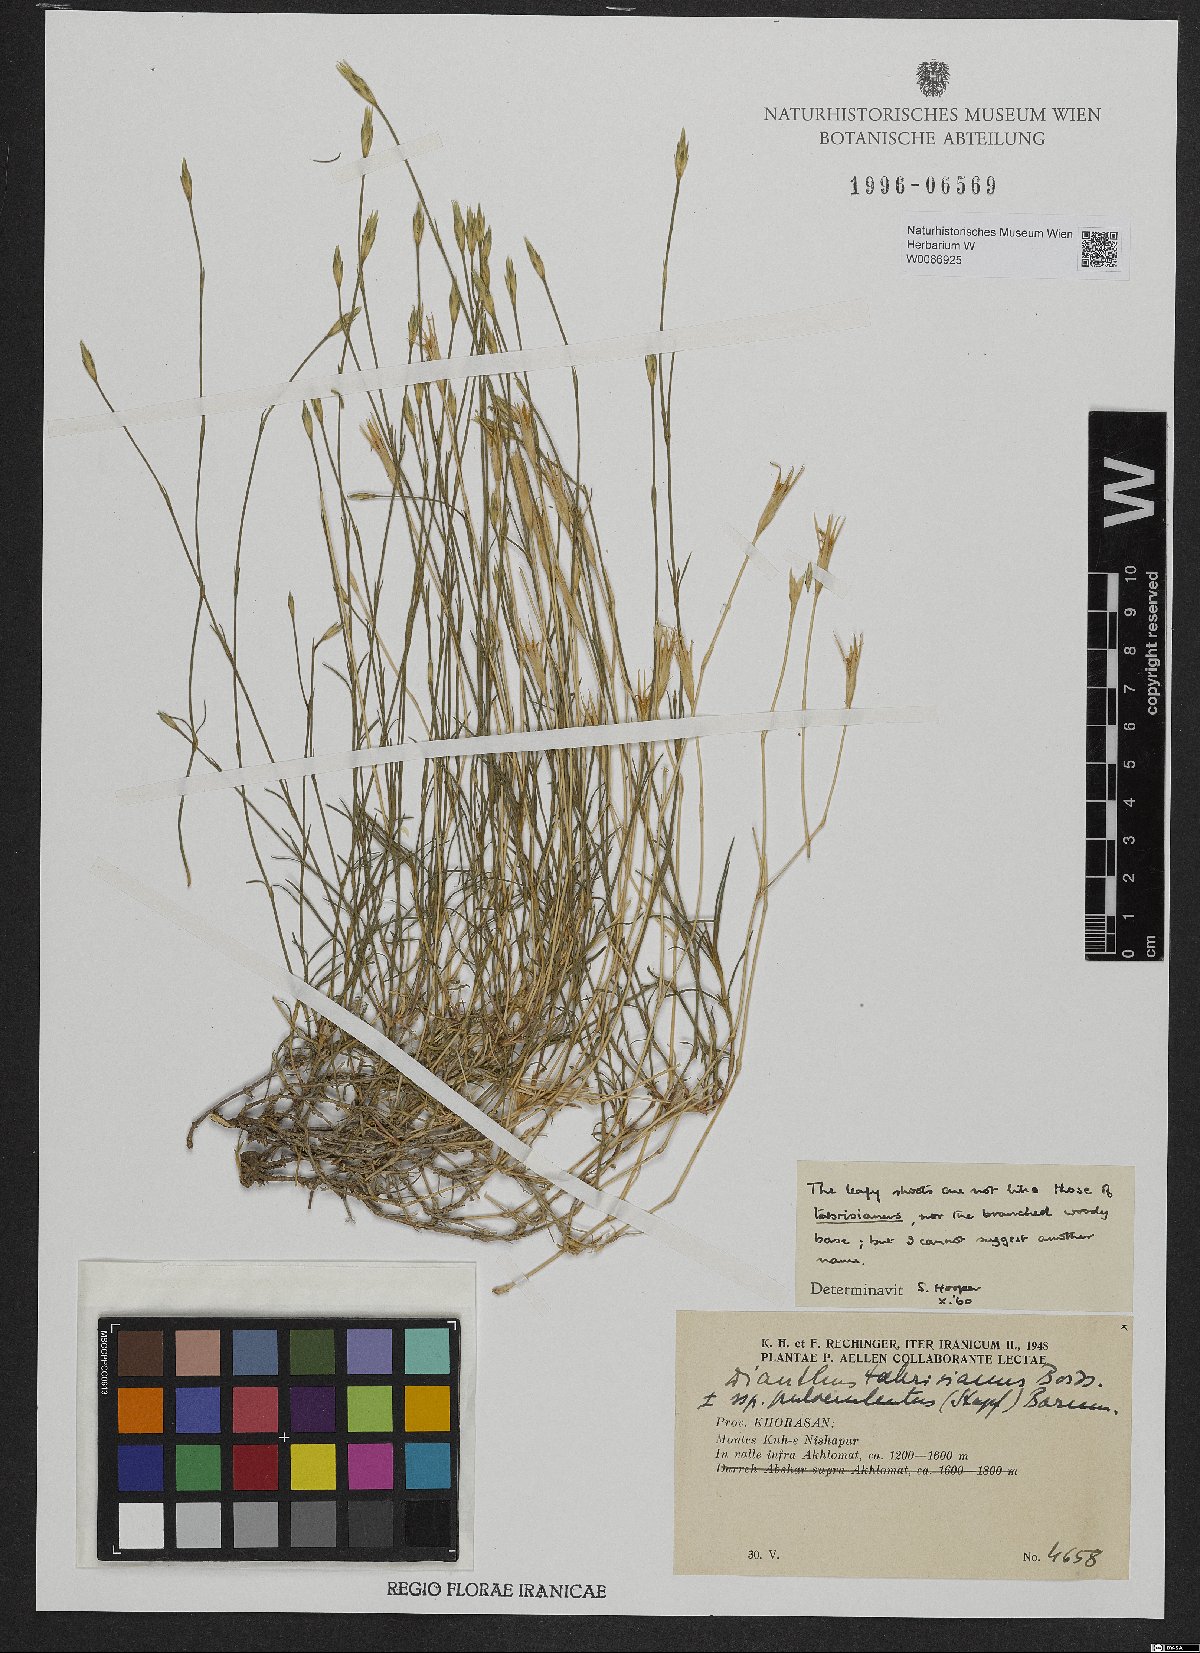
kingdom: Plantae
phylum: Tracheophyta
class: Magnoliopsida
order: Caryophyllales
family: Caryophyllaceae
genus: Dianthus
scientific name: Dianthus tabrisianus
